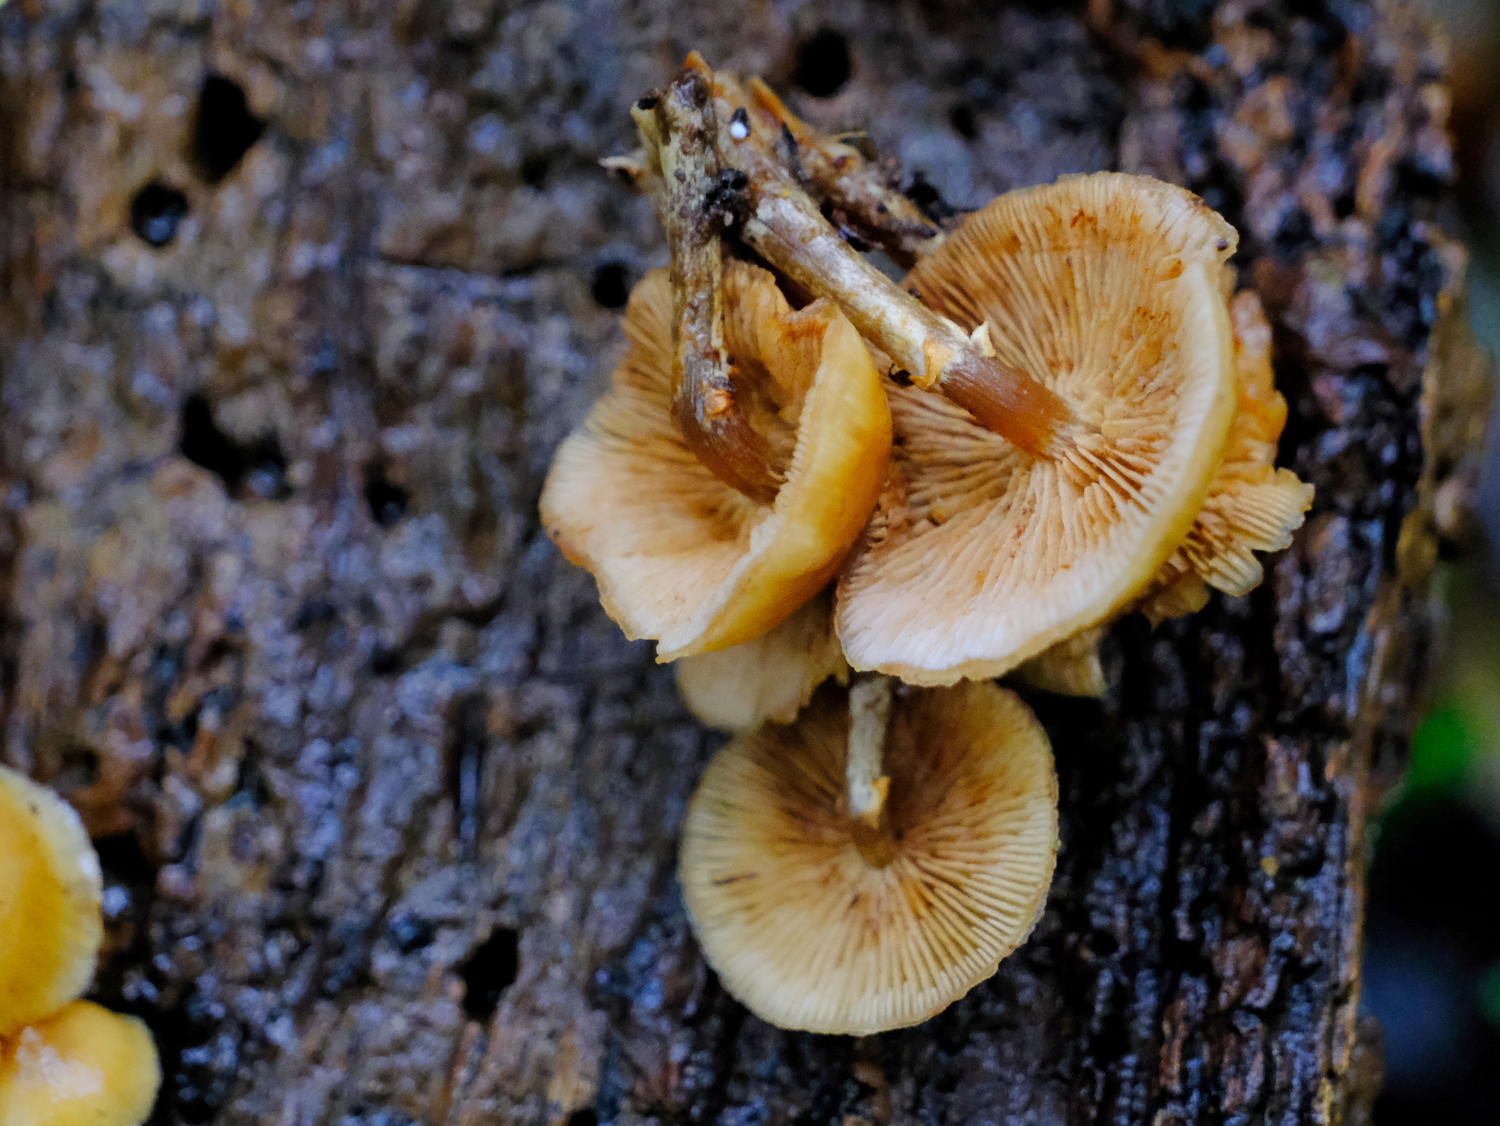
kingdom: Fungi
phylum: Basidiomycota
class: Agaricomycetes
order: Agaricales
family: Hymenogastraceae
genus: Galerina
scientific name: Galerina marginata
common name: randbæltet hjelmhat
